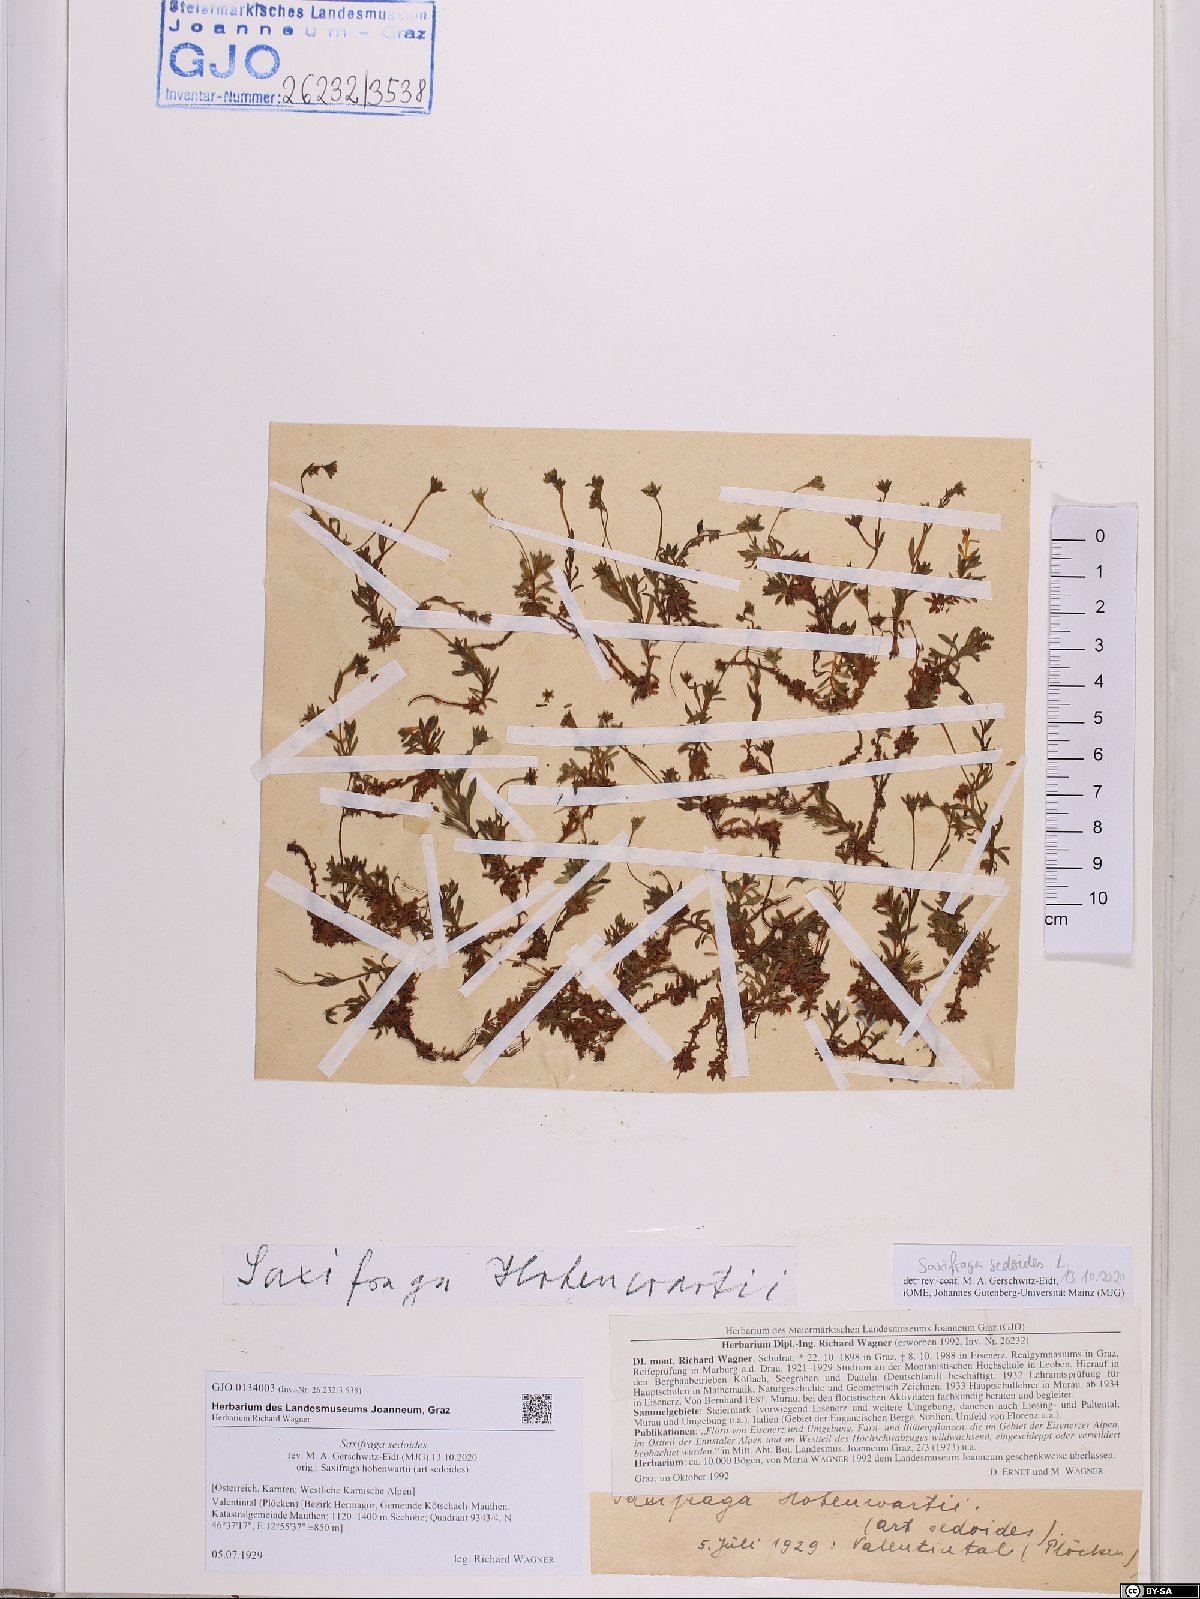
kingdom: Plantae
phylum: Tracheophyta
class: Magnoliopsida
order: Saxifragales
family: Saxifragaceae
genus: Saxifraga
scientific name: Saxifraga sedoides
